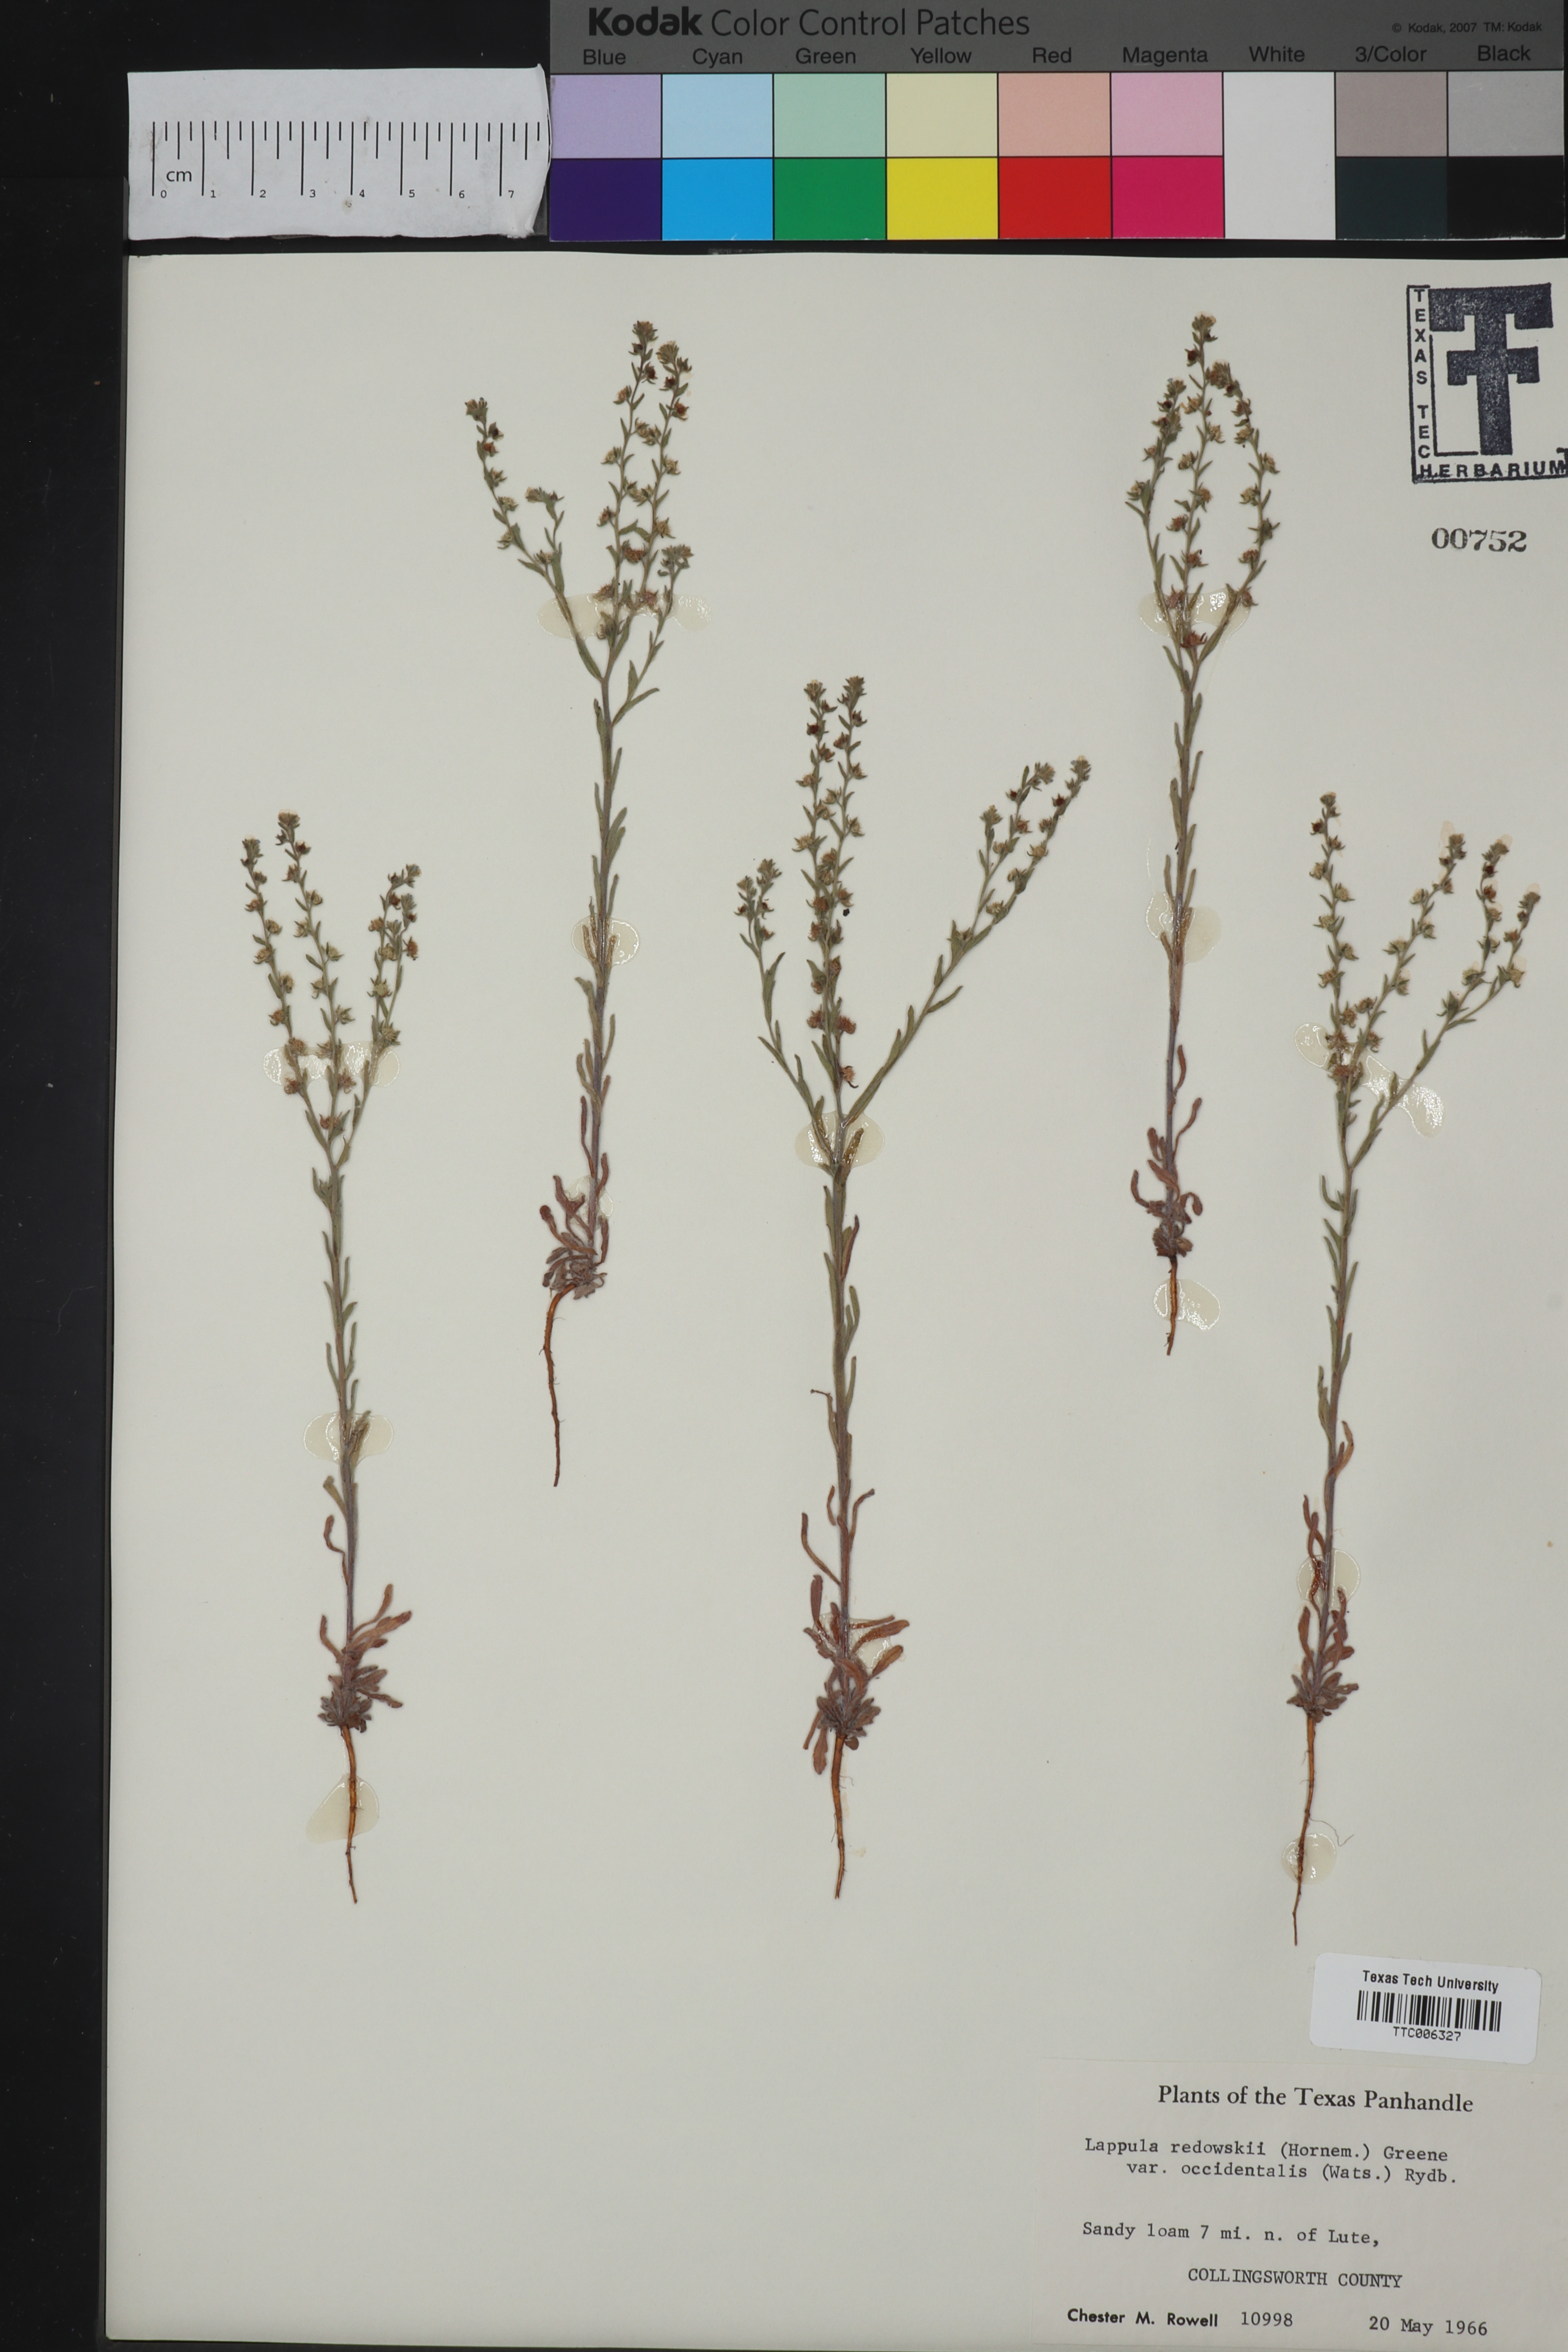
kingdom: Plantae
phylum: Tracheophyta
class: Magnoliopsida
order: Boraginales
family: Boraginaceae
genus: Lappula
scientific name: Lappula occidentalis
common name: Western stickseed
